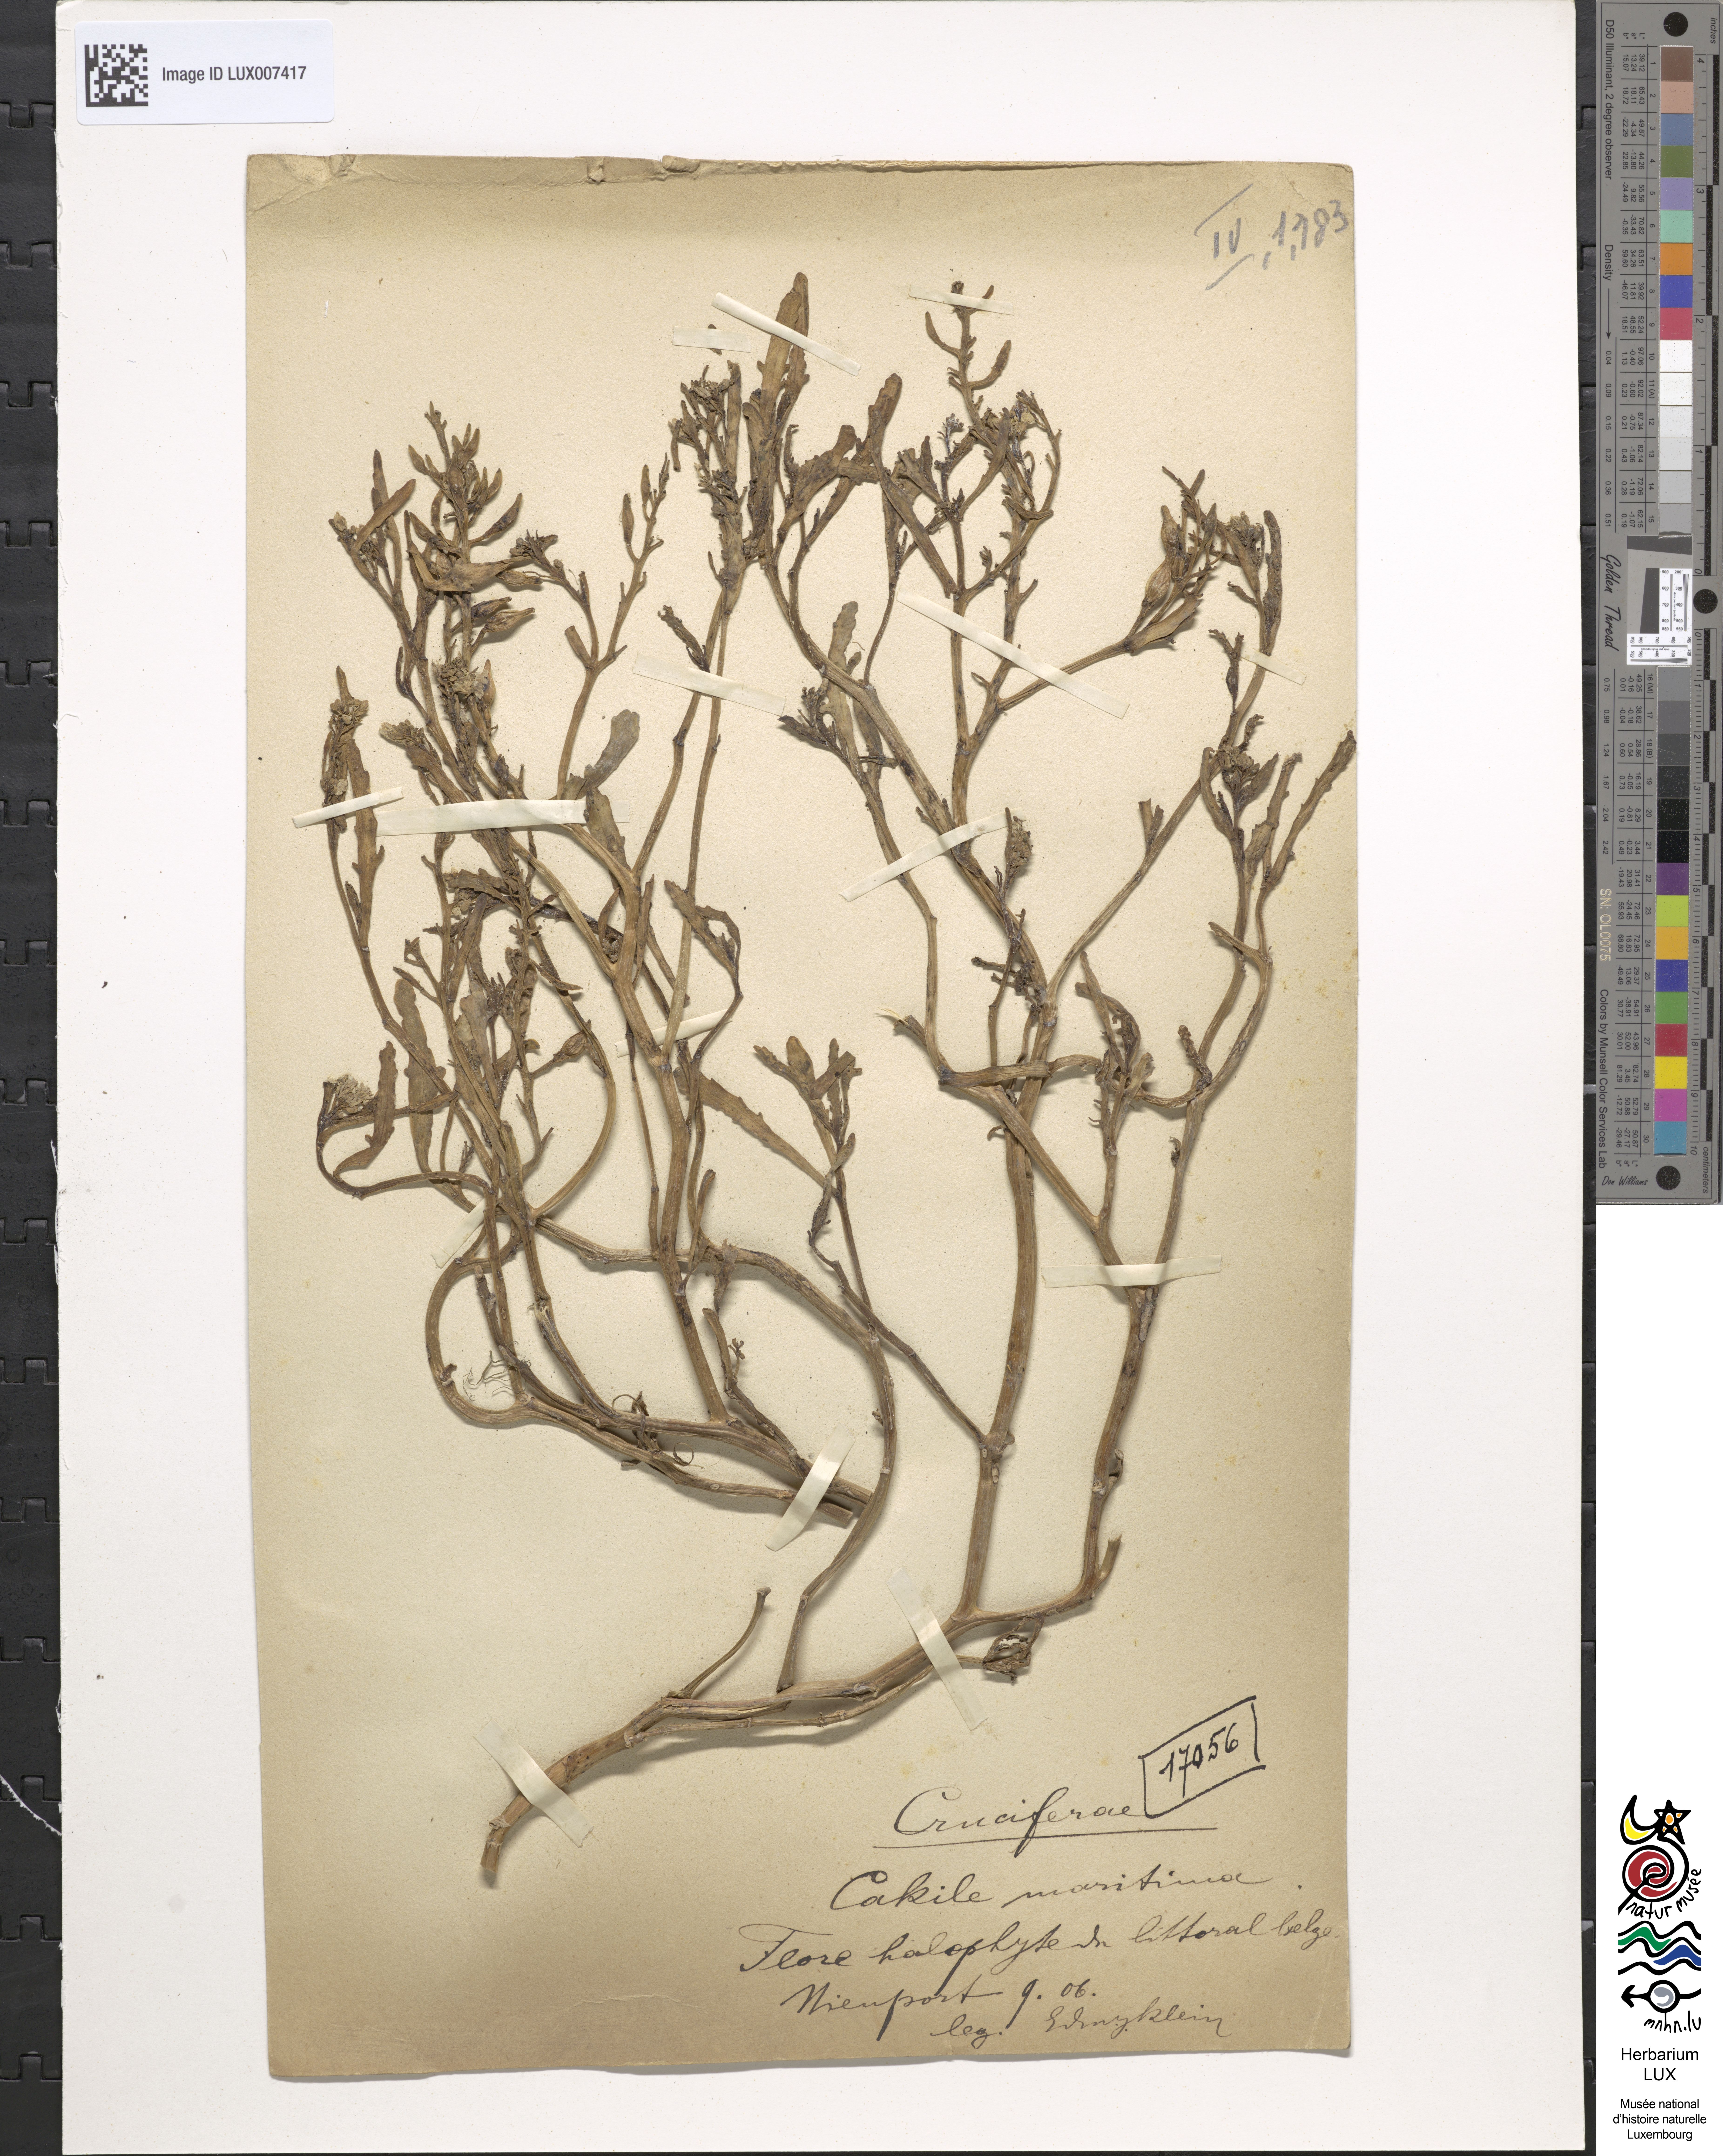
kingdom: Plantae
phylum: Tracheophyta
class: Magnoliopsida
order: Brassicales
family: Brassicaceae
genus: Cakile
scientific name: Cakile maritima
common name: Sea rocket
